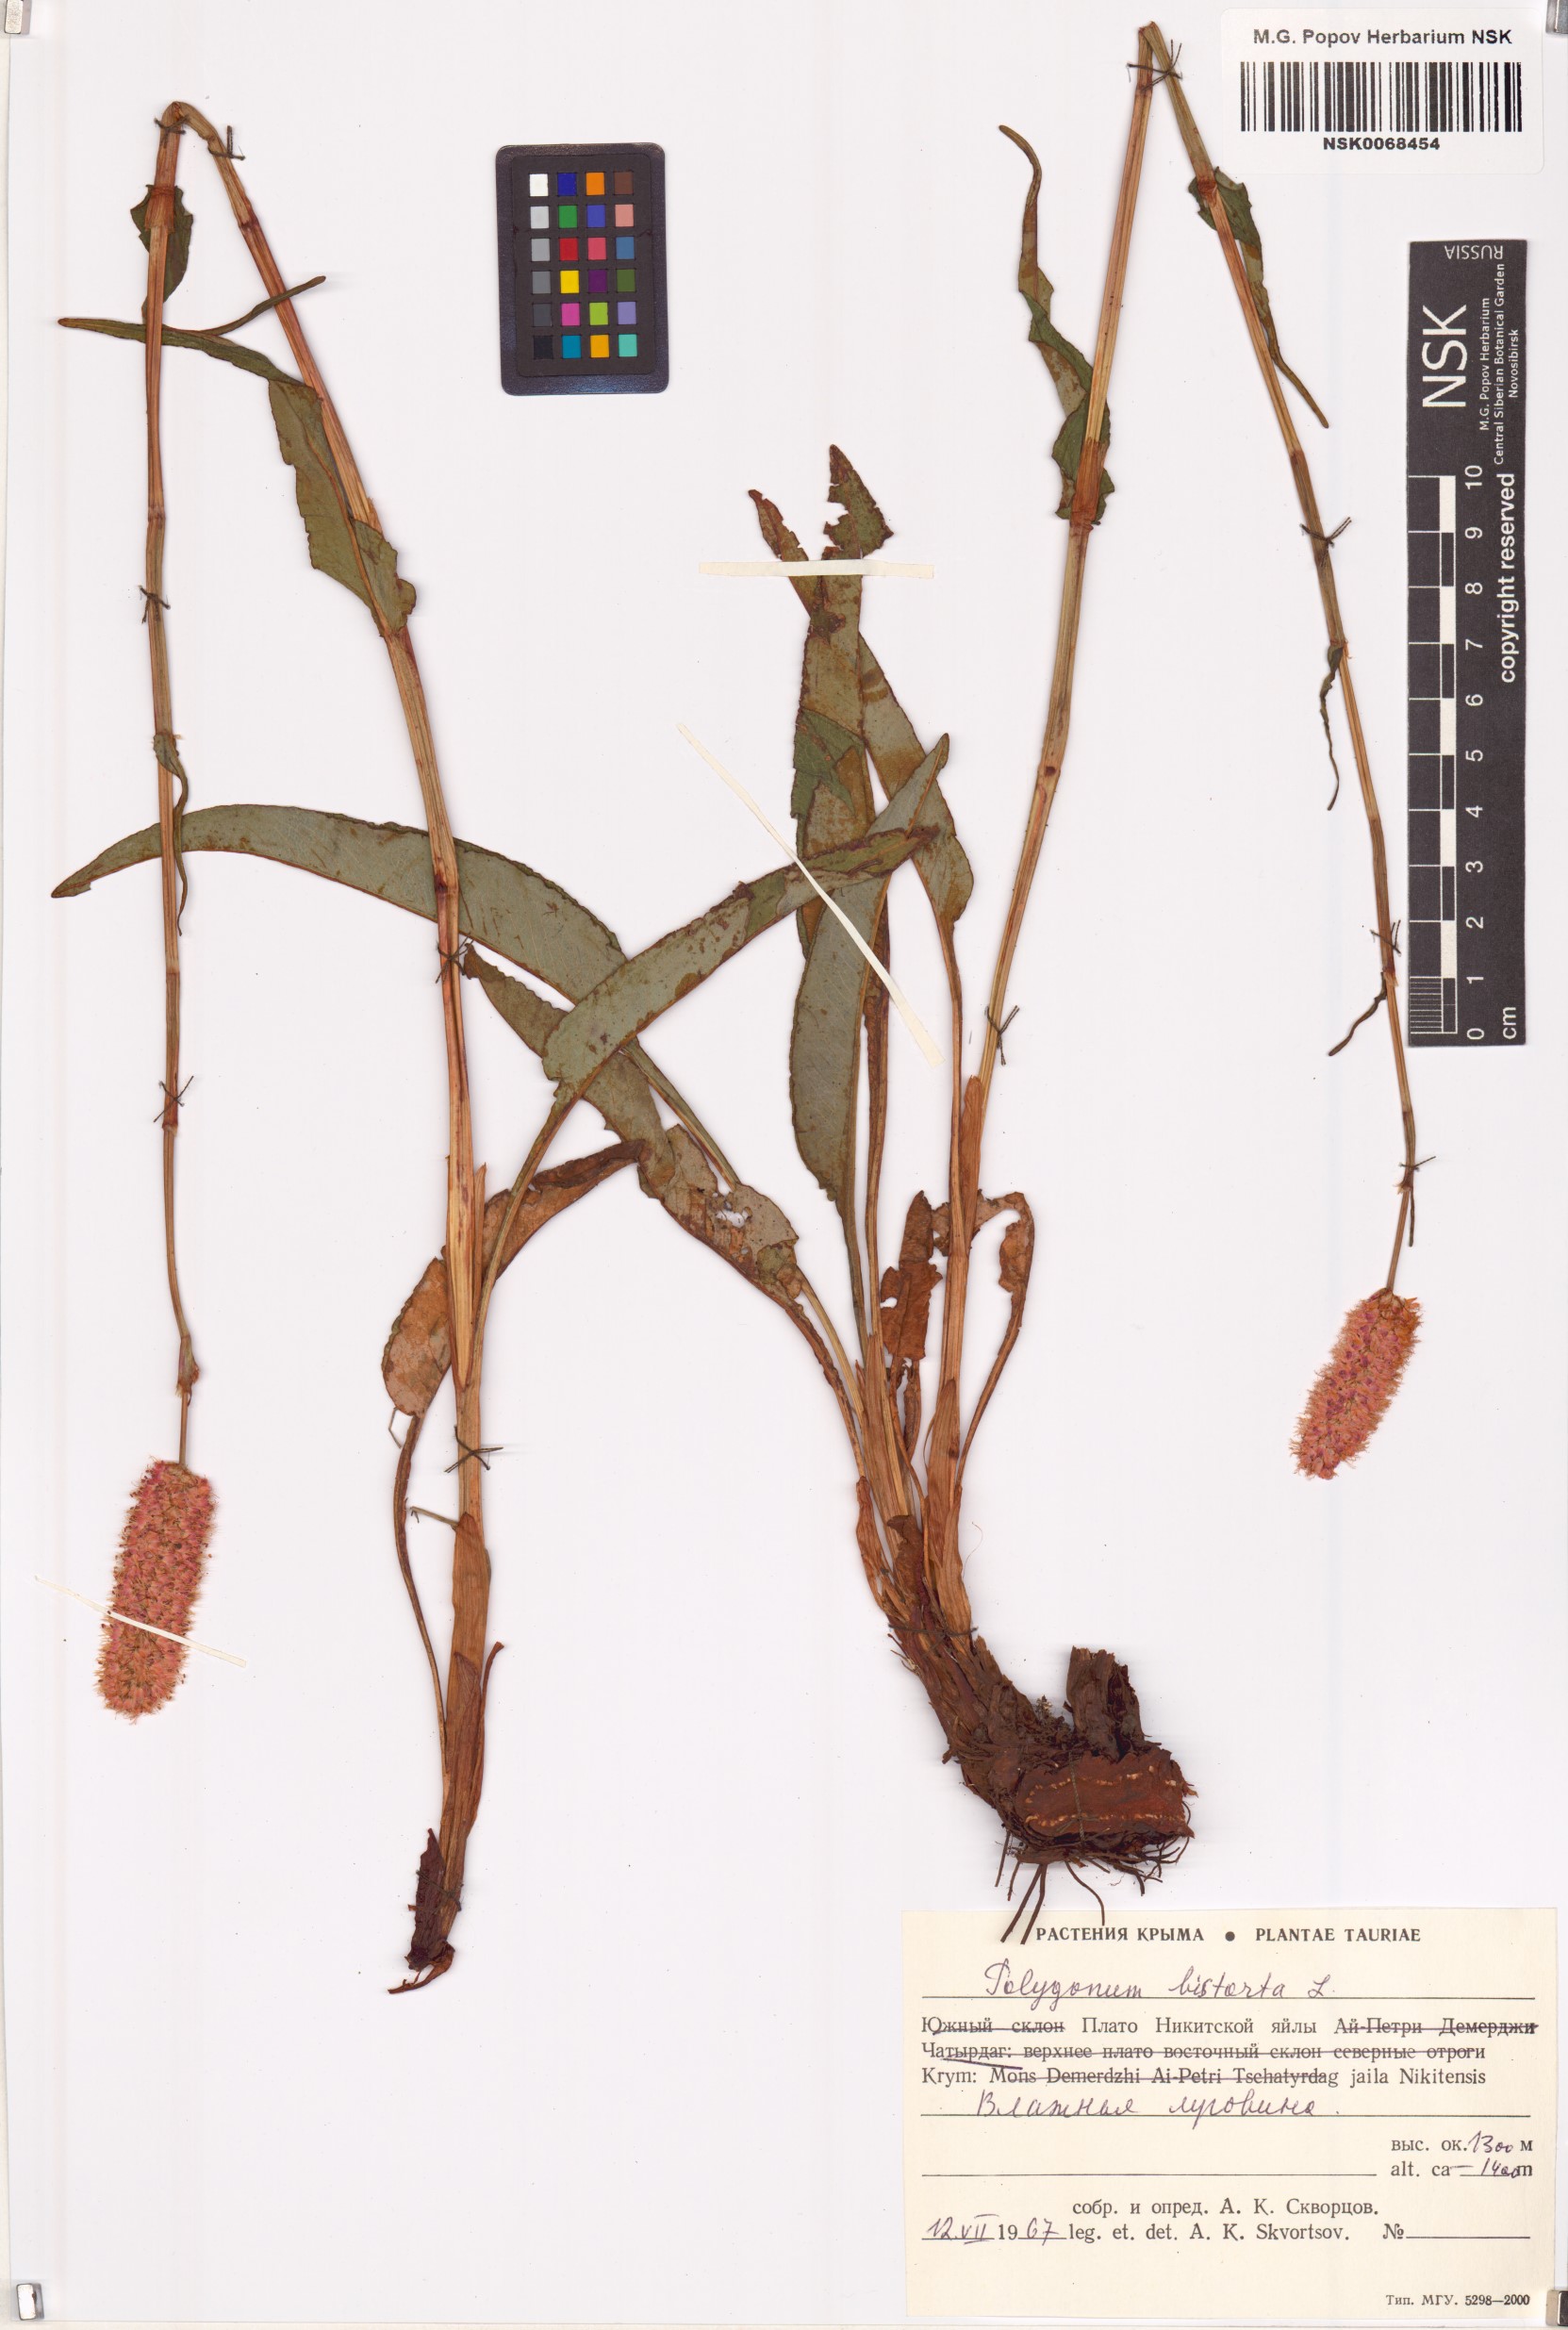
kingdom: Plantae
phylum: Tracheophyta
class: Magnoliopsida
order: Caryophyllales
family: Polygonaceae
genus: Bistorta
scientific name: Bistorta officinalis
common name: Common bistort
